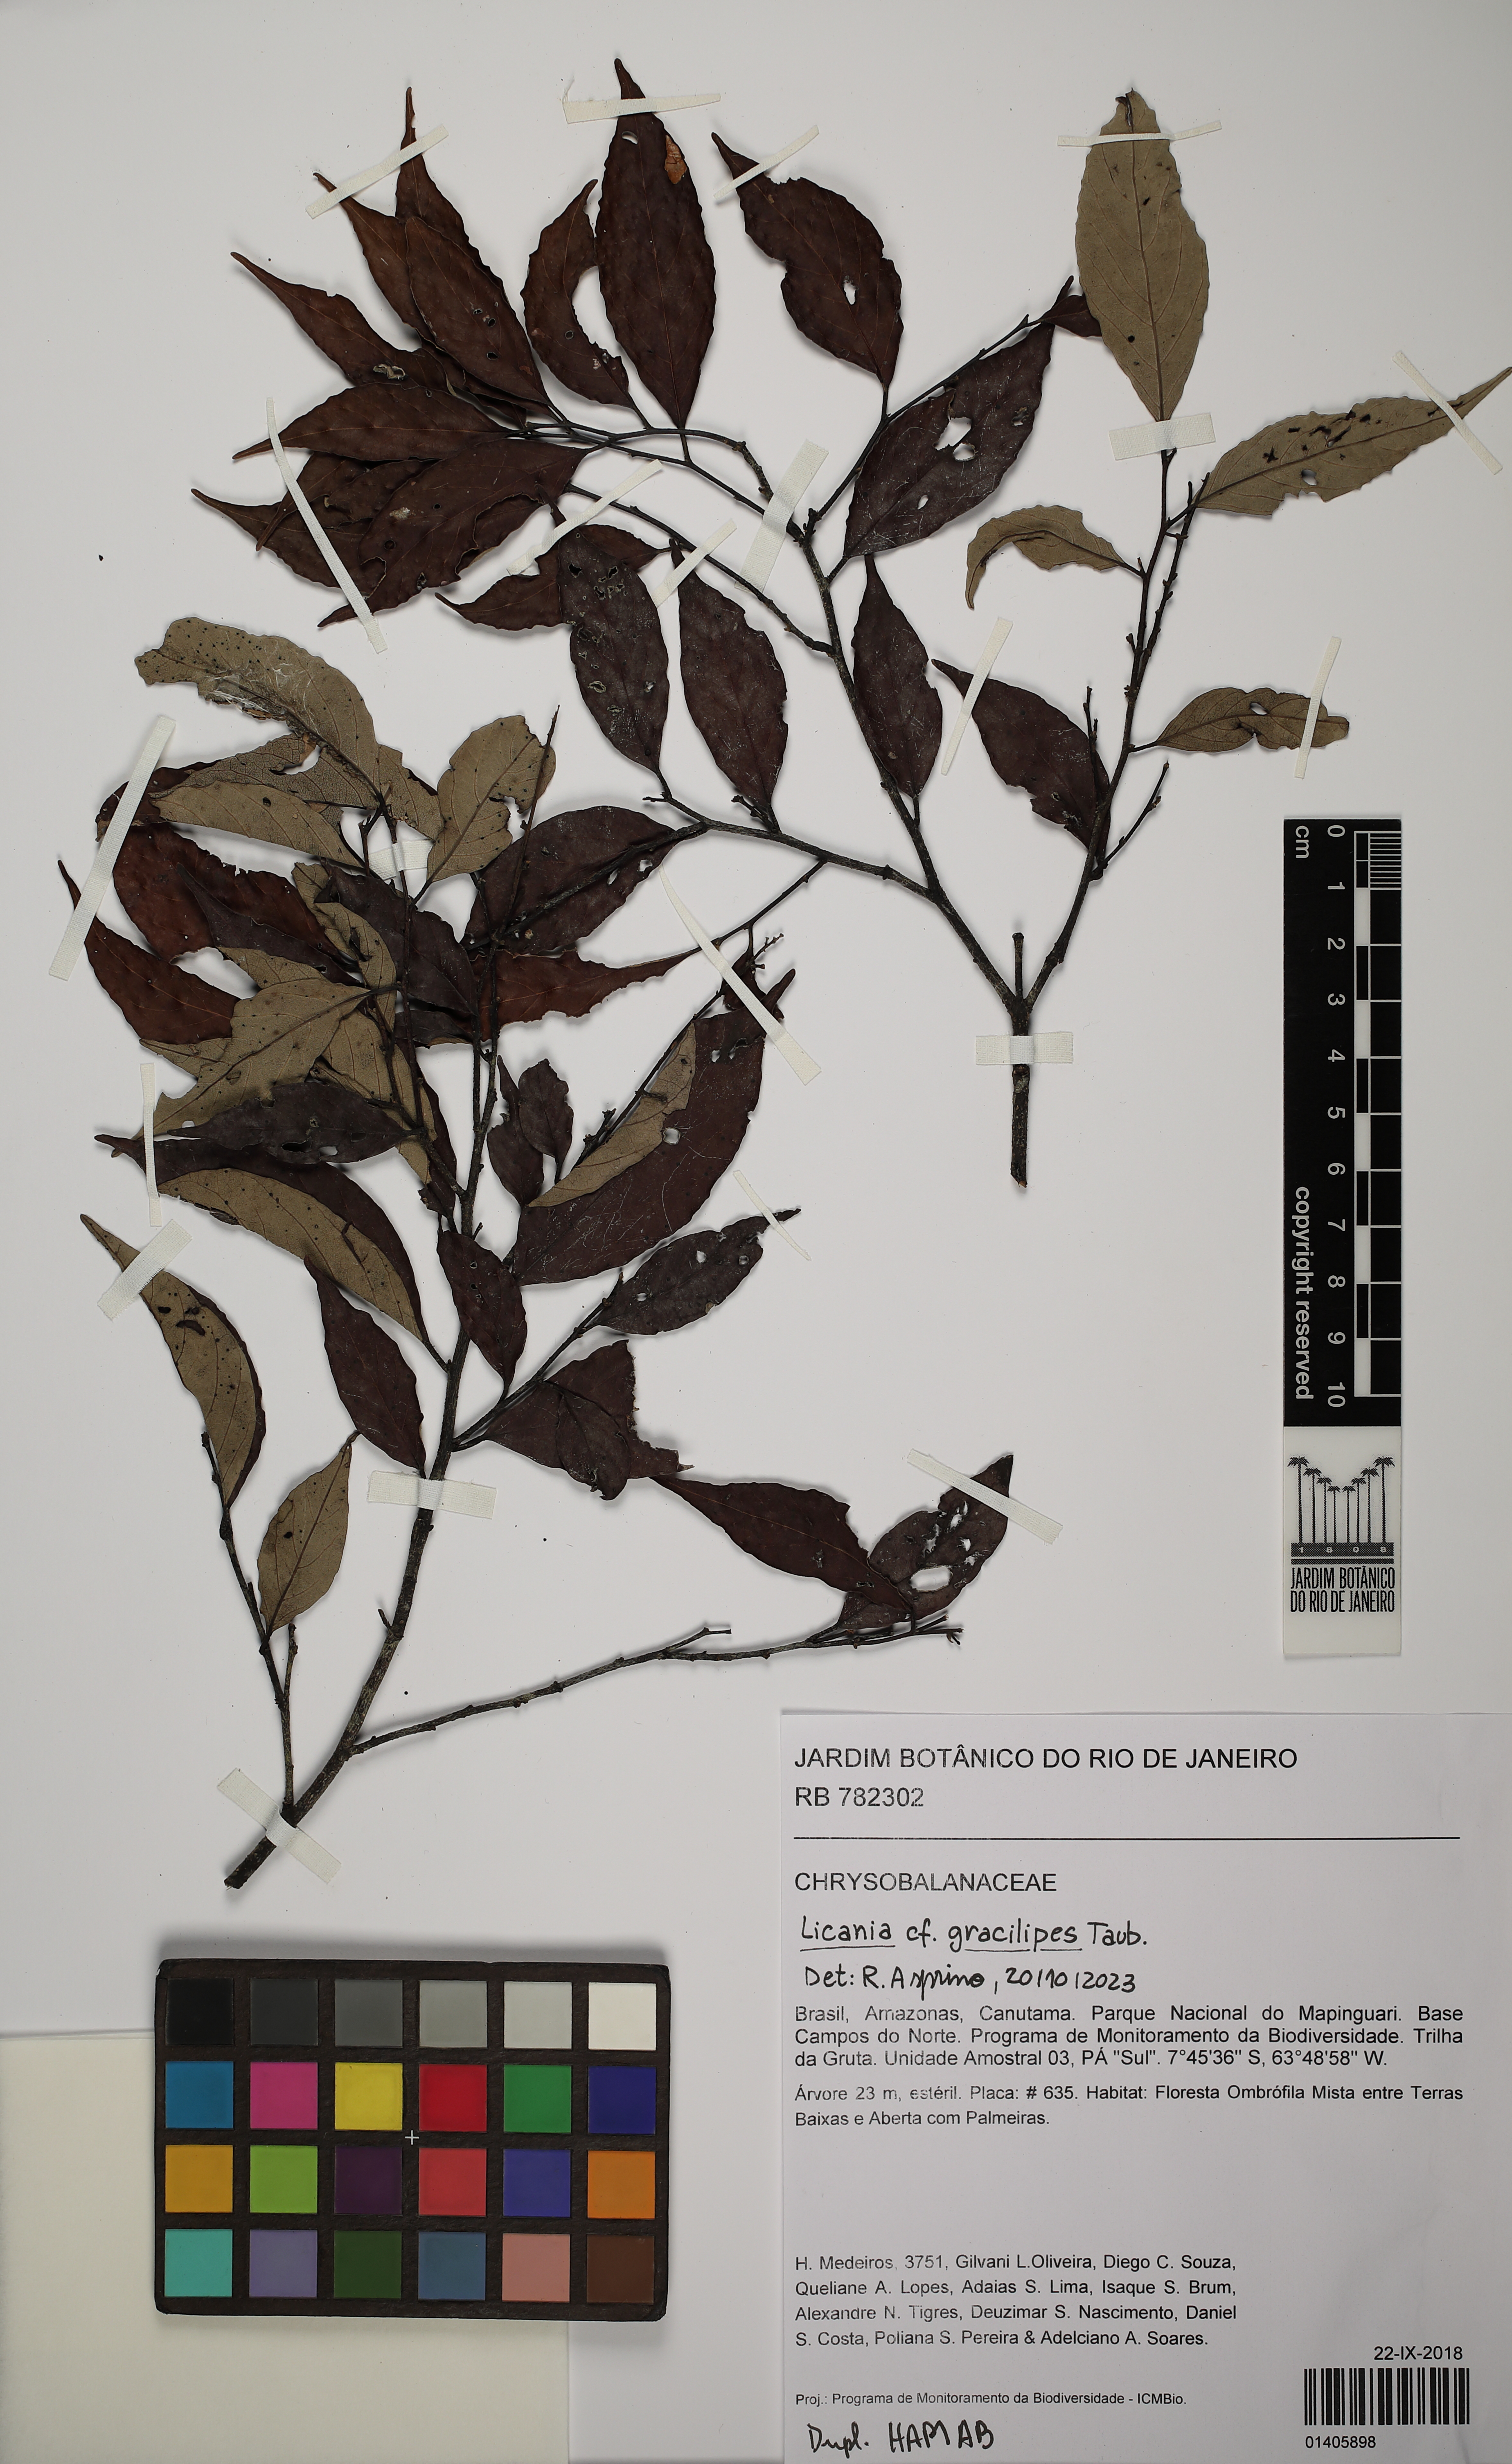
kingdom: Plantae
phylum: Tracheophyta
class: Magnoliopsida
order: Malpighiales
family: Chrysobalanaceae
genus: Licania
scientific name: Licania gracilipes
